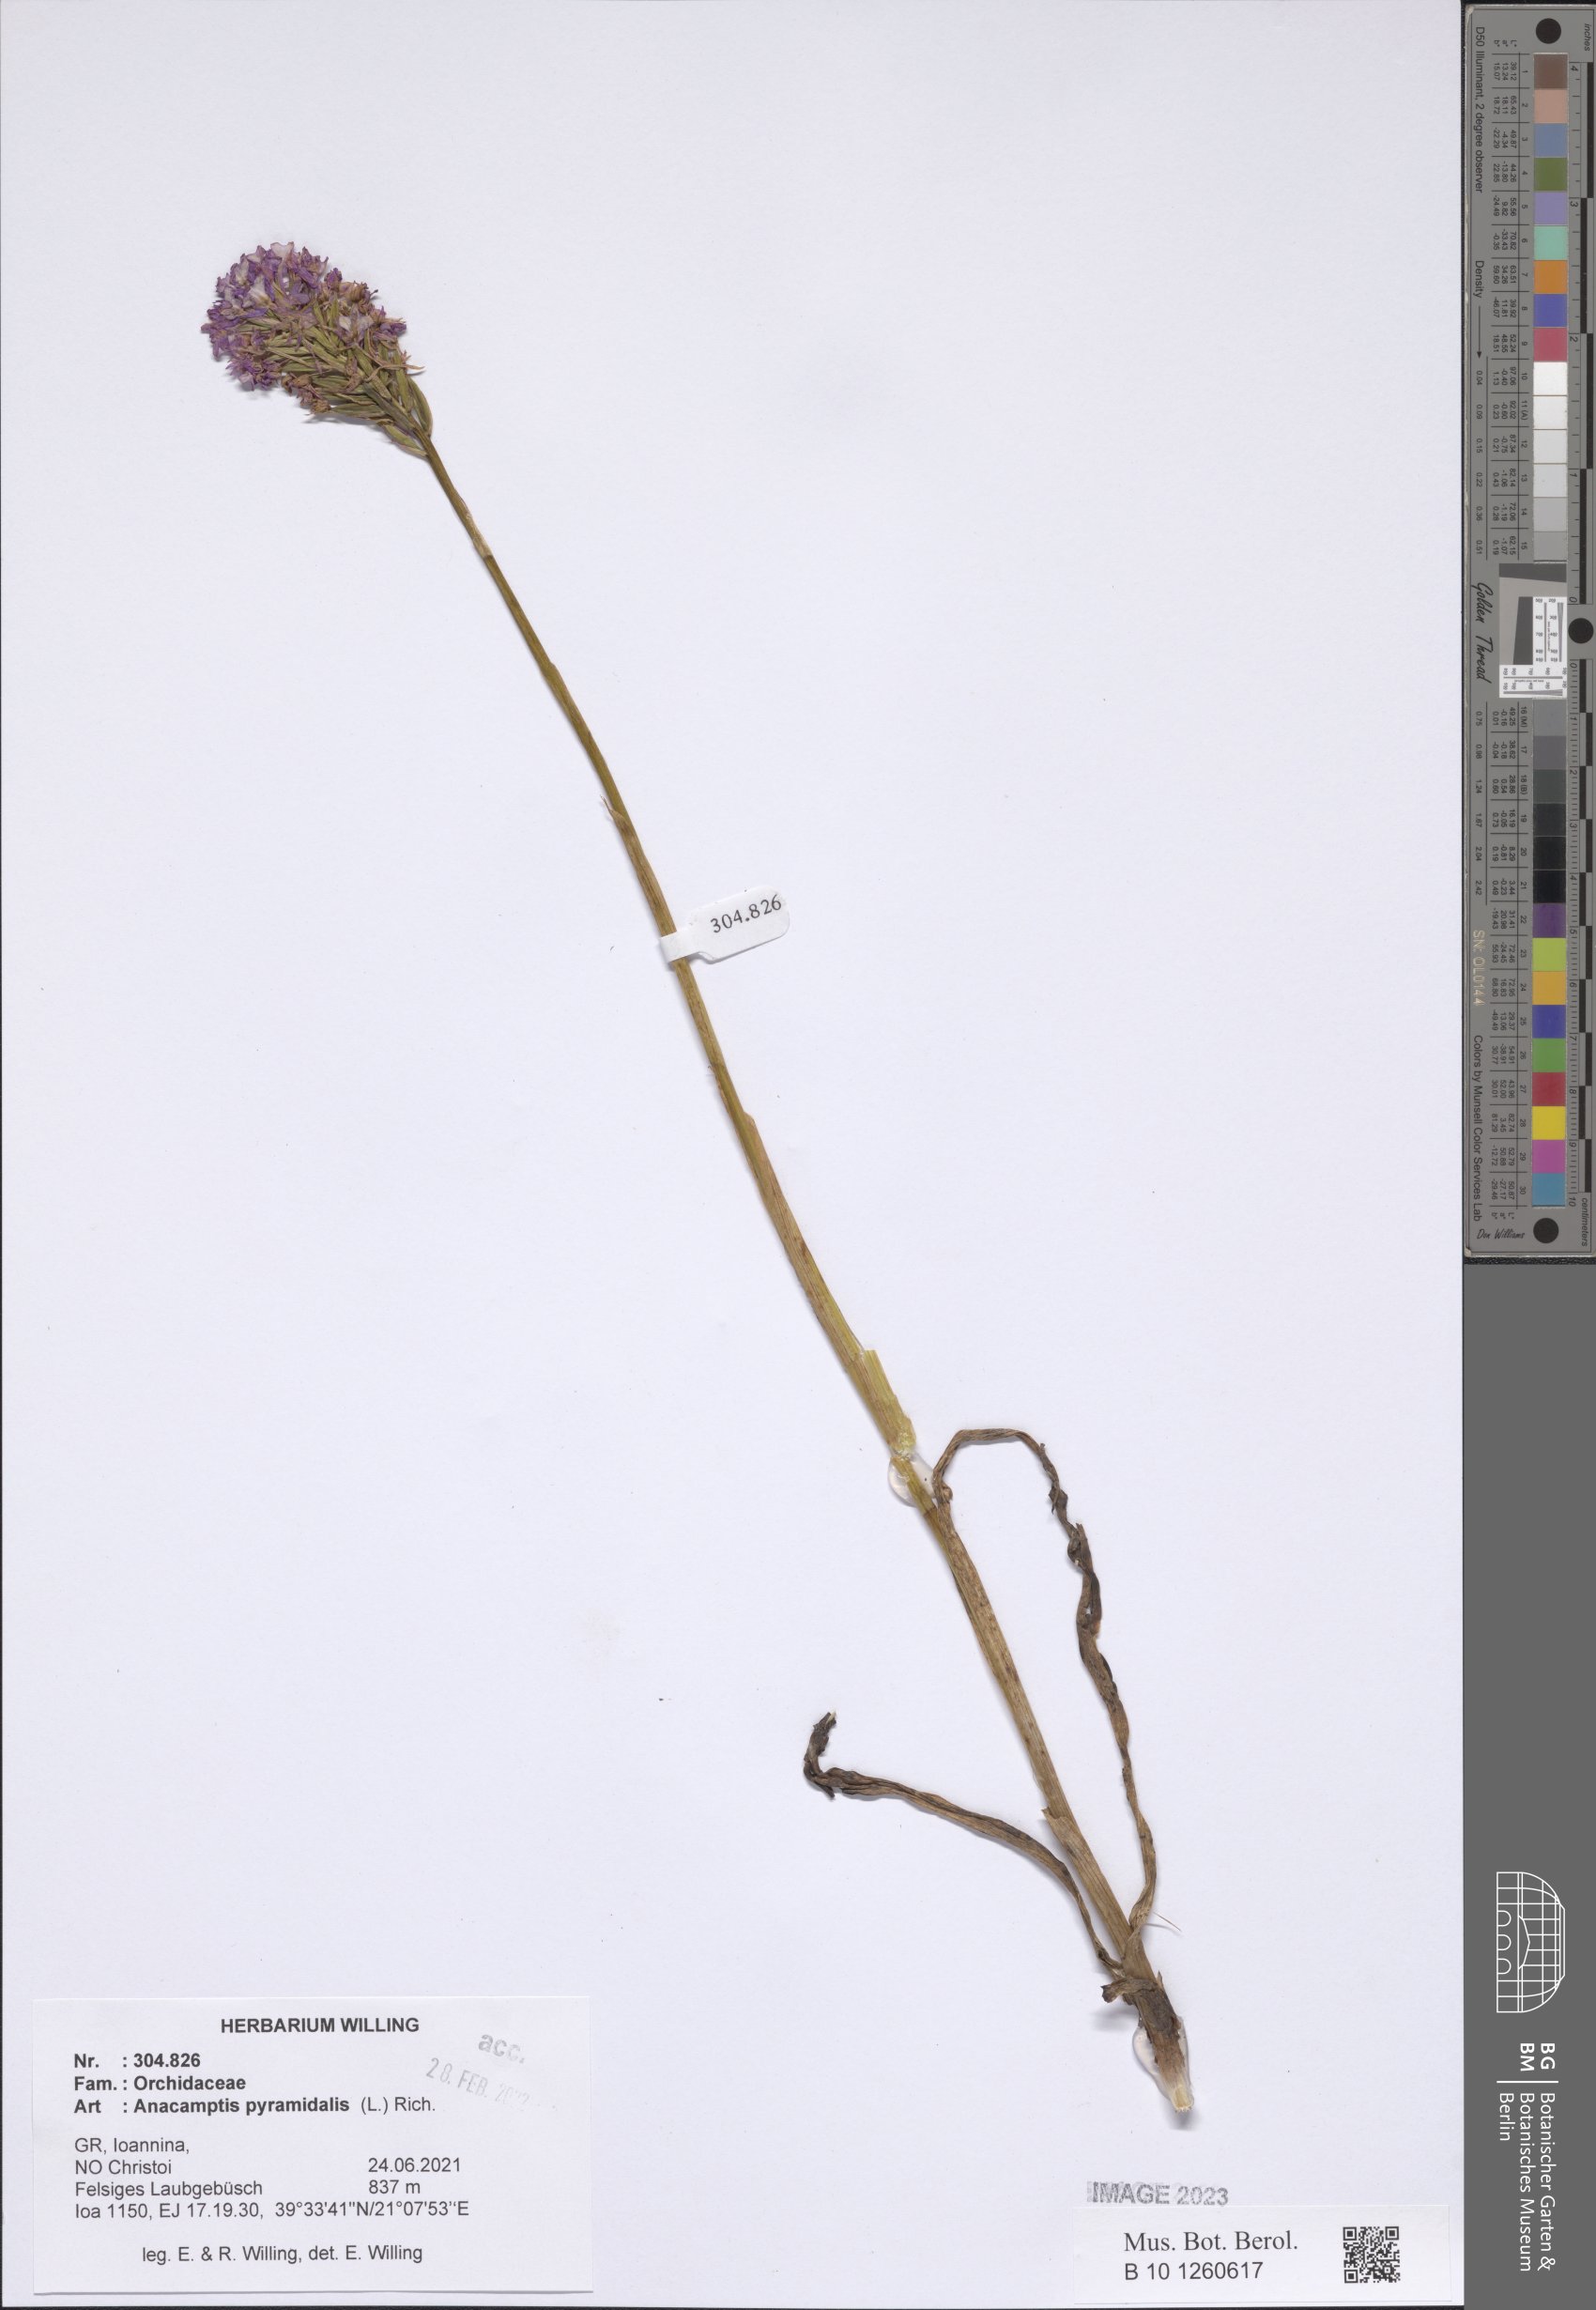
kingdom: Plantae
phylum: Tracheophyta
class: Liliopsida
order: Asparagales
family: Orchidaceae
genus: Anacamptis
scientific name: Anacamptis pyramidalis
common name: Pyramidal orchid
